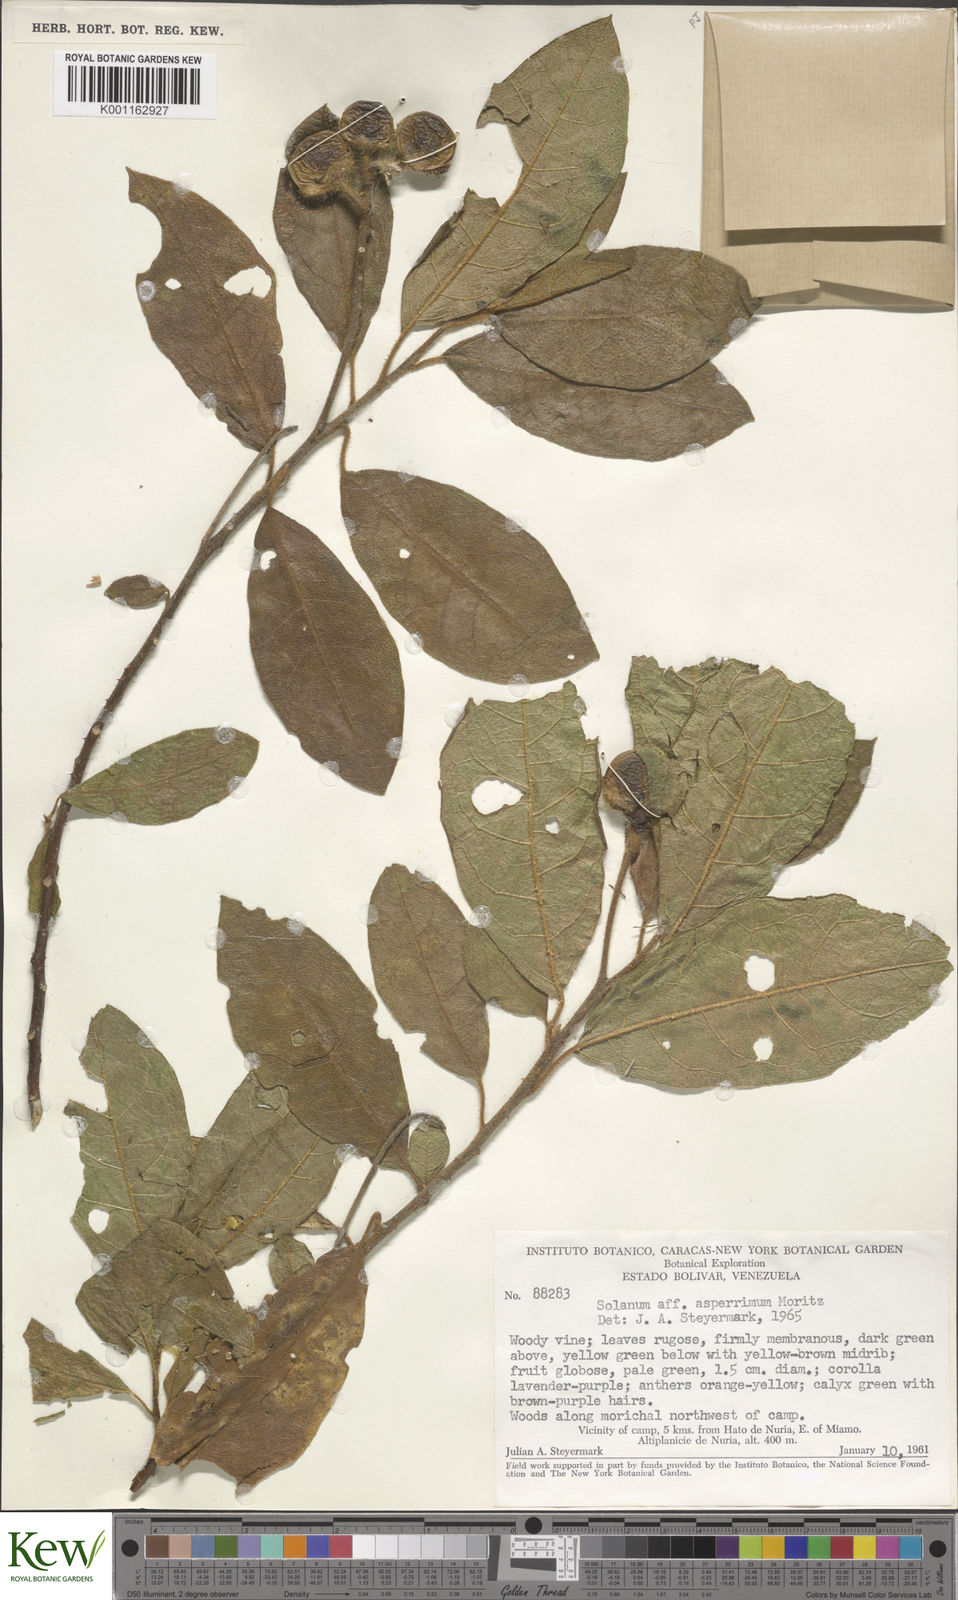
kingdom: Plantae
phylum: Tracheophyta
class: Magnoliopsida
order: Solanales
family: Solanaceae
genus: Solanum
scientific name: Solanum aturense
